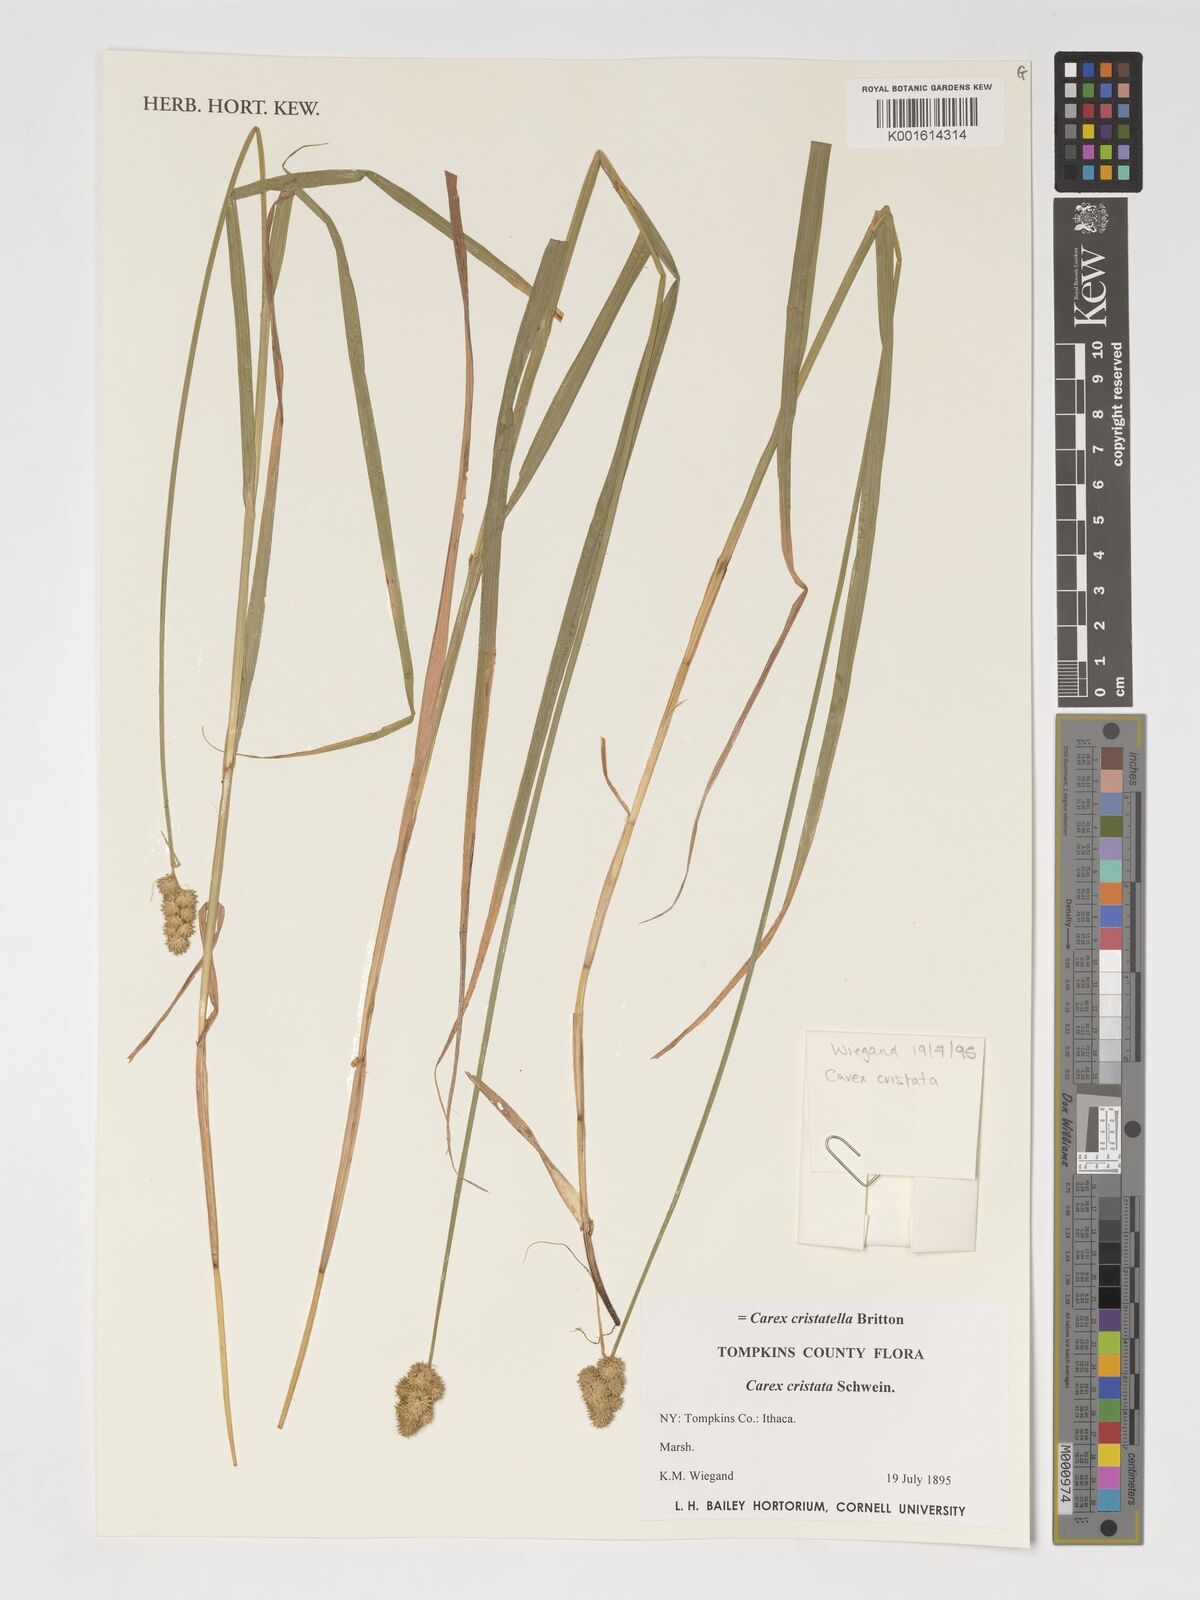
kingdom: Plantae
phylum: Tracheophyta
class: Liliopsida
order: Poales
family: Cyperaceae
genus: Carex
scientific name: Carex cristatella
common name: Crested oval sedge
